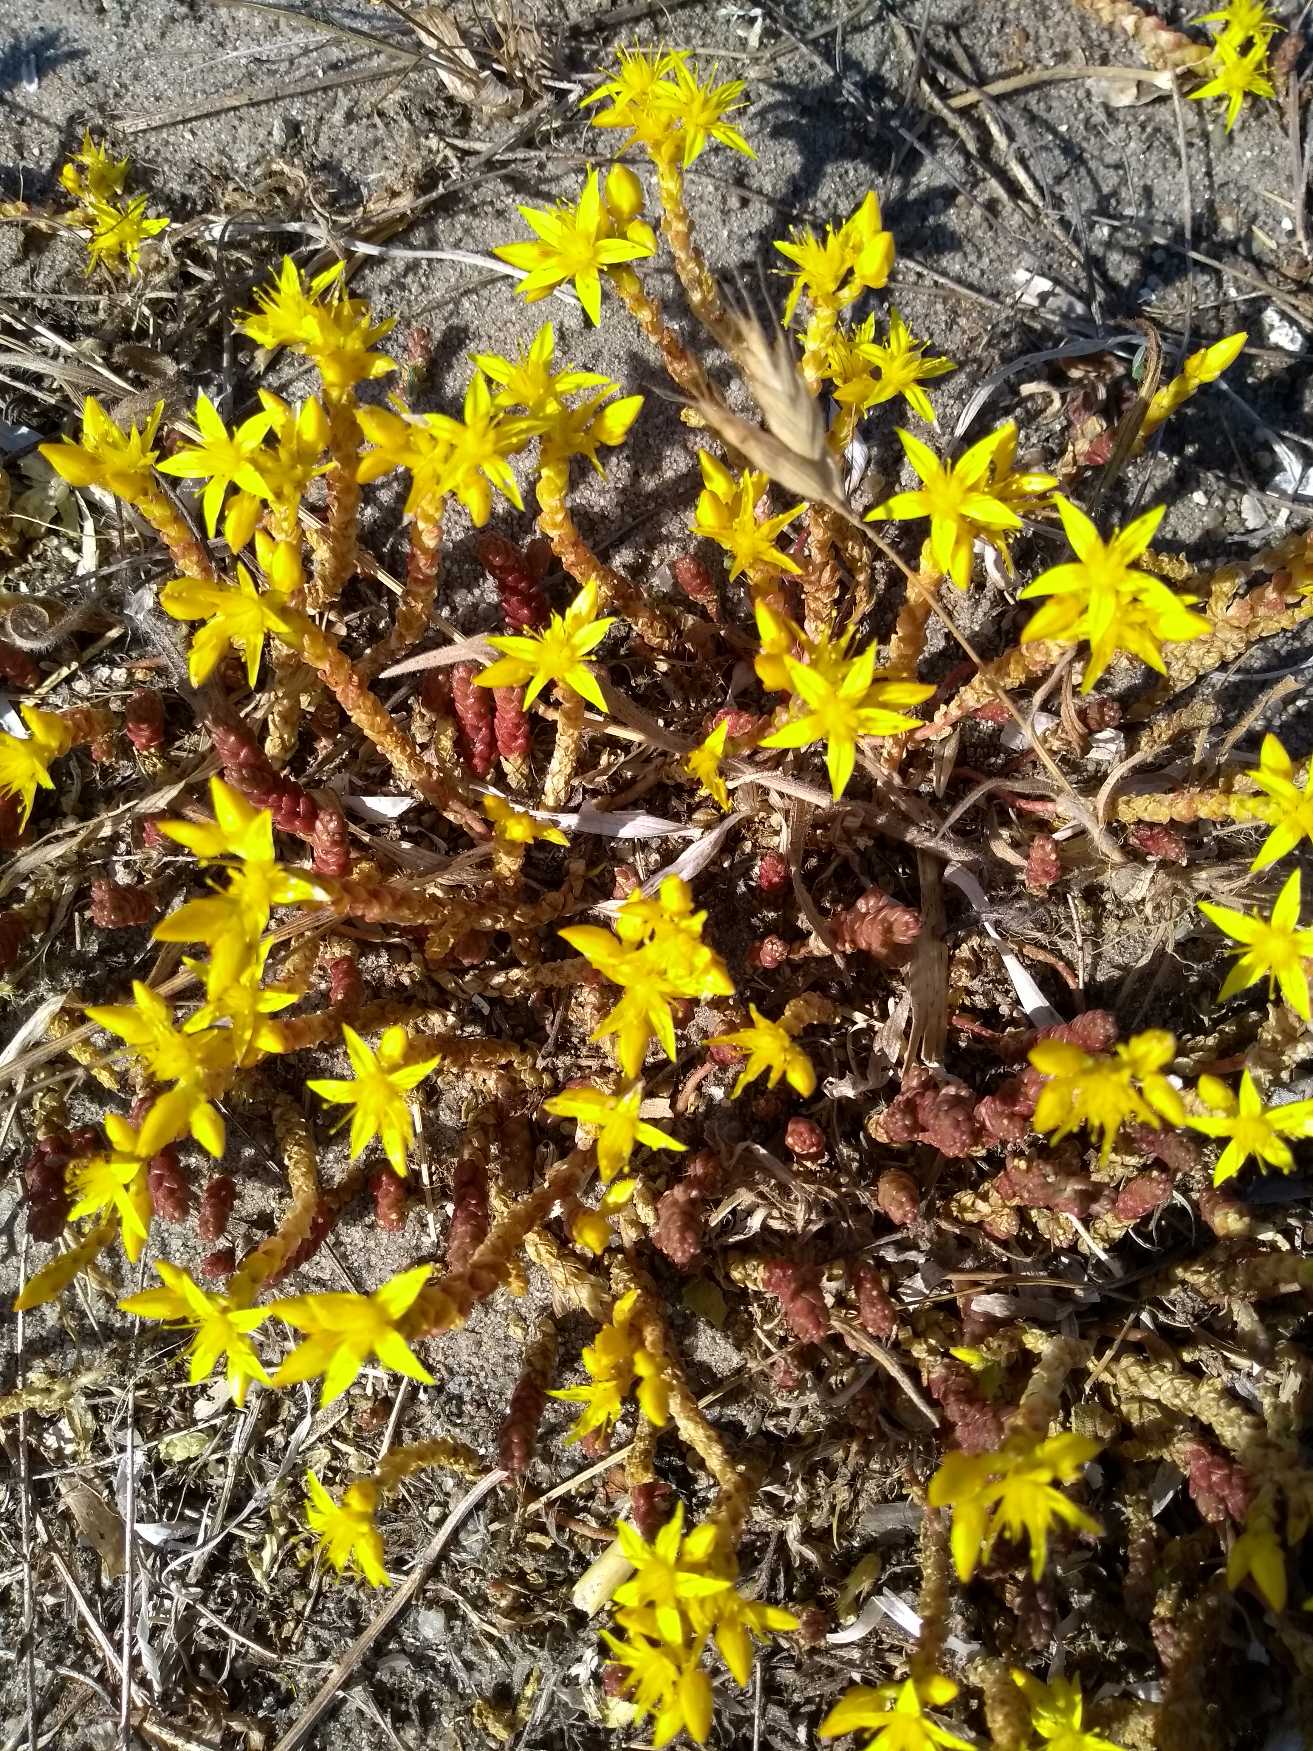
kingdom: Plantae
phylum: Tracheophyta
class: Magnoliopsida
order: Saxifragales
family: Crassulaceae
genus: Sedum
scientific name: Sedum acre
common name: Bidende stenurt
